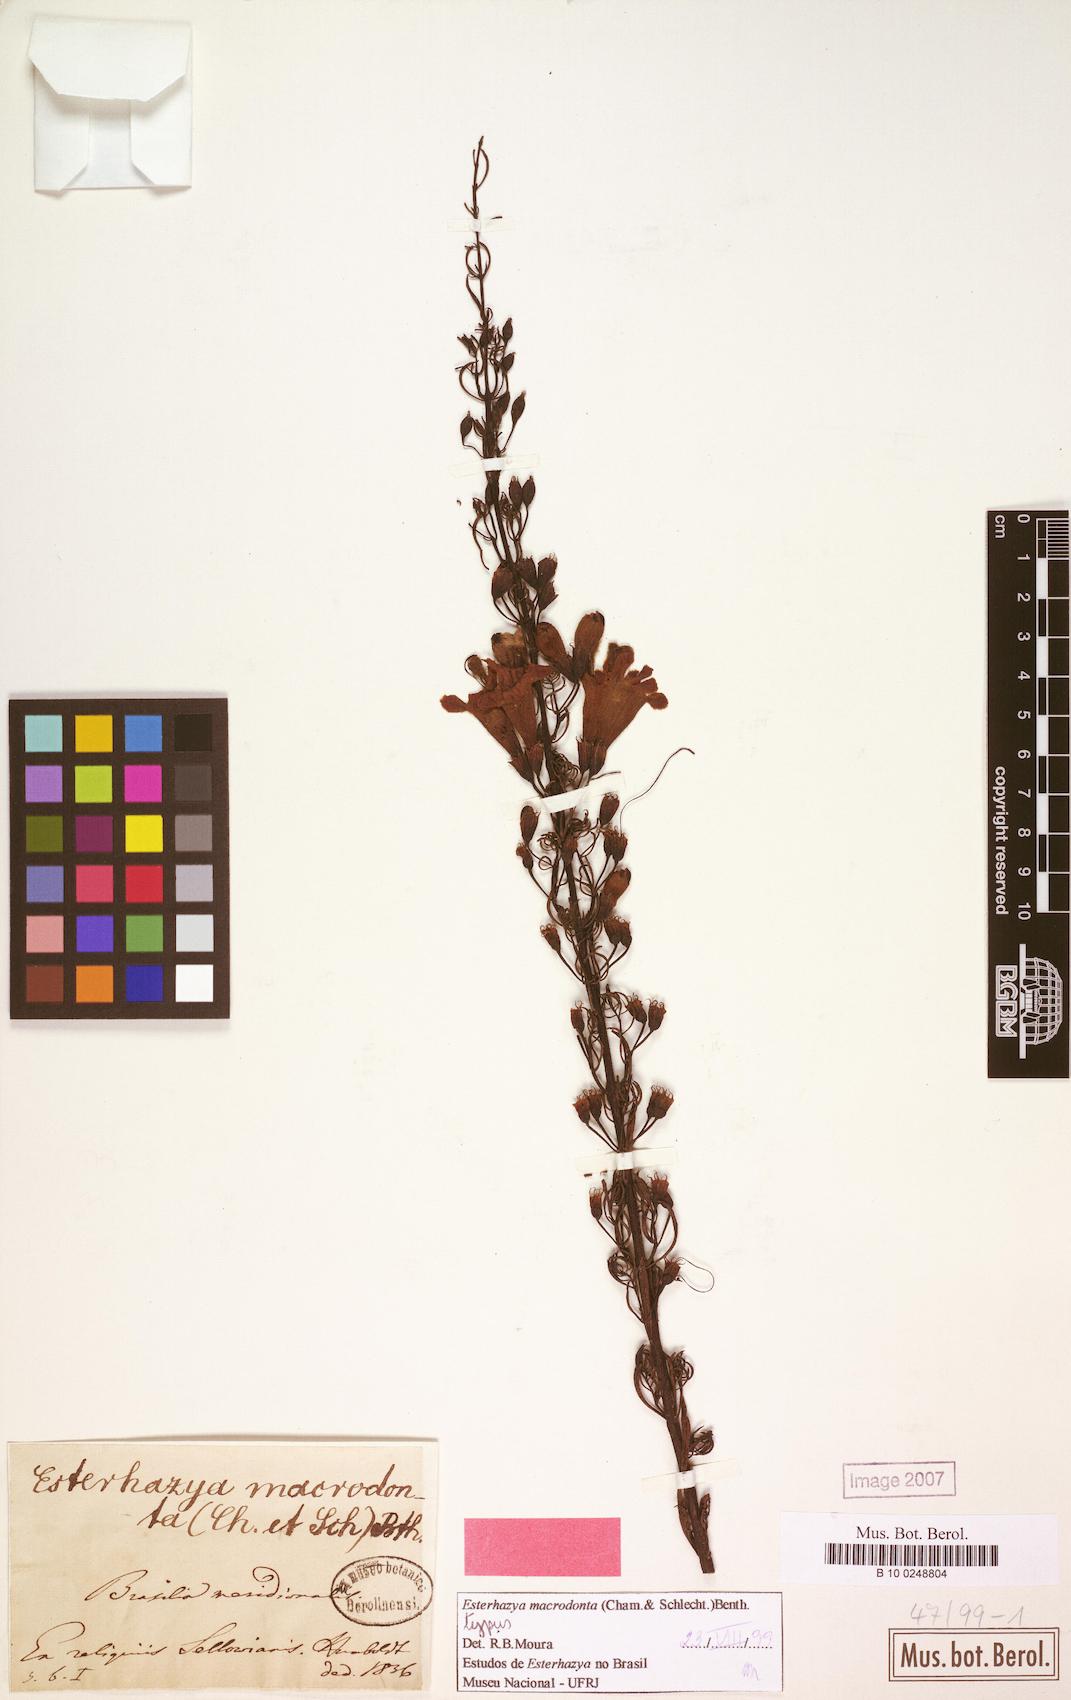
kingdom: Plantae
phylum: Tracheophyta
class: Magnoliopsida
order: Lamiales
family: Orobanchaceae
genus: Esterhazya
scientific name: Esterhazya macrodonta
